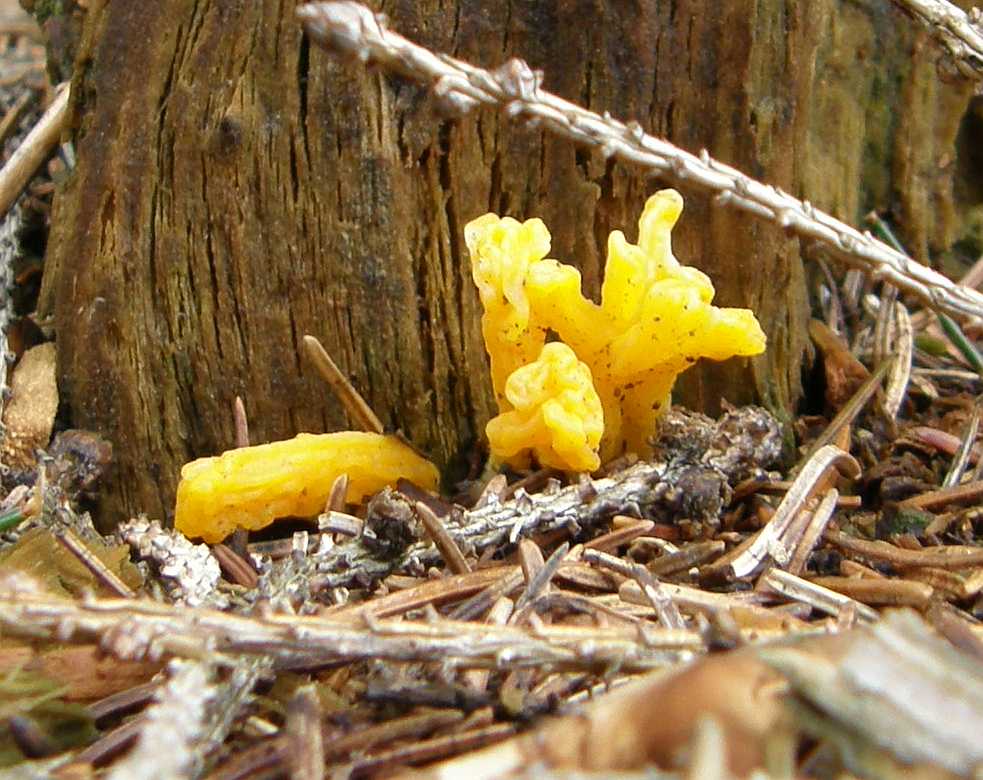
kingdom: Fungi
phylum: Basidiomycota
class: Dacrymycetes
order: Dacrymycetales
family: Dacrymycetaceae
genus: Calocera
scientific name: Calocera viscosa
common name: almindelig guldgaffel
